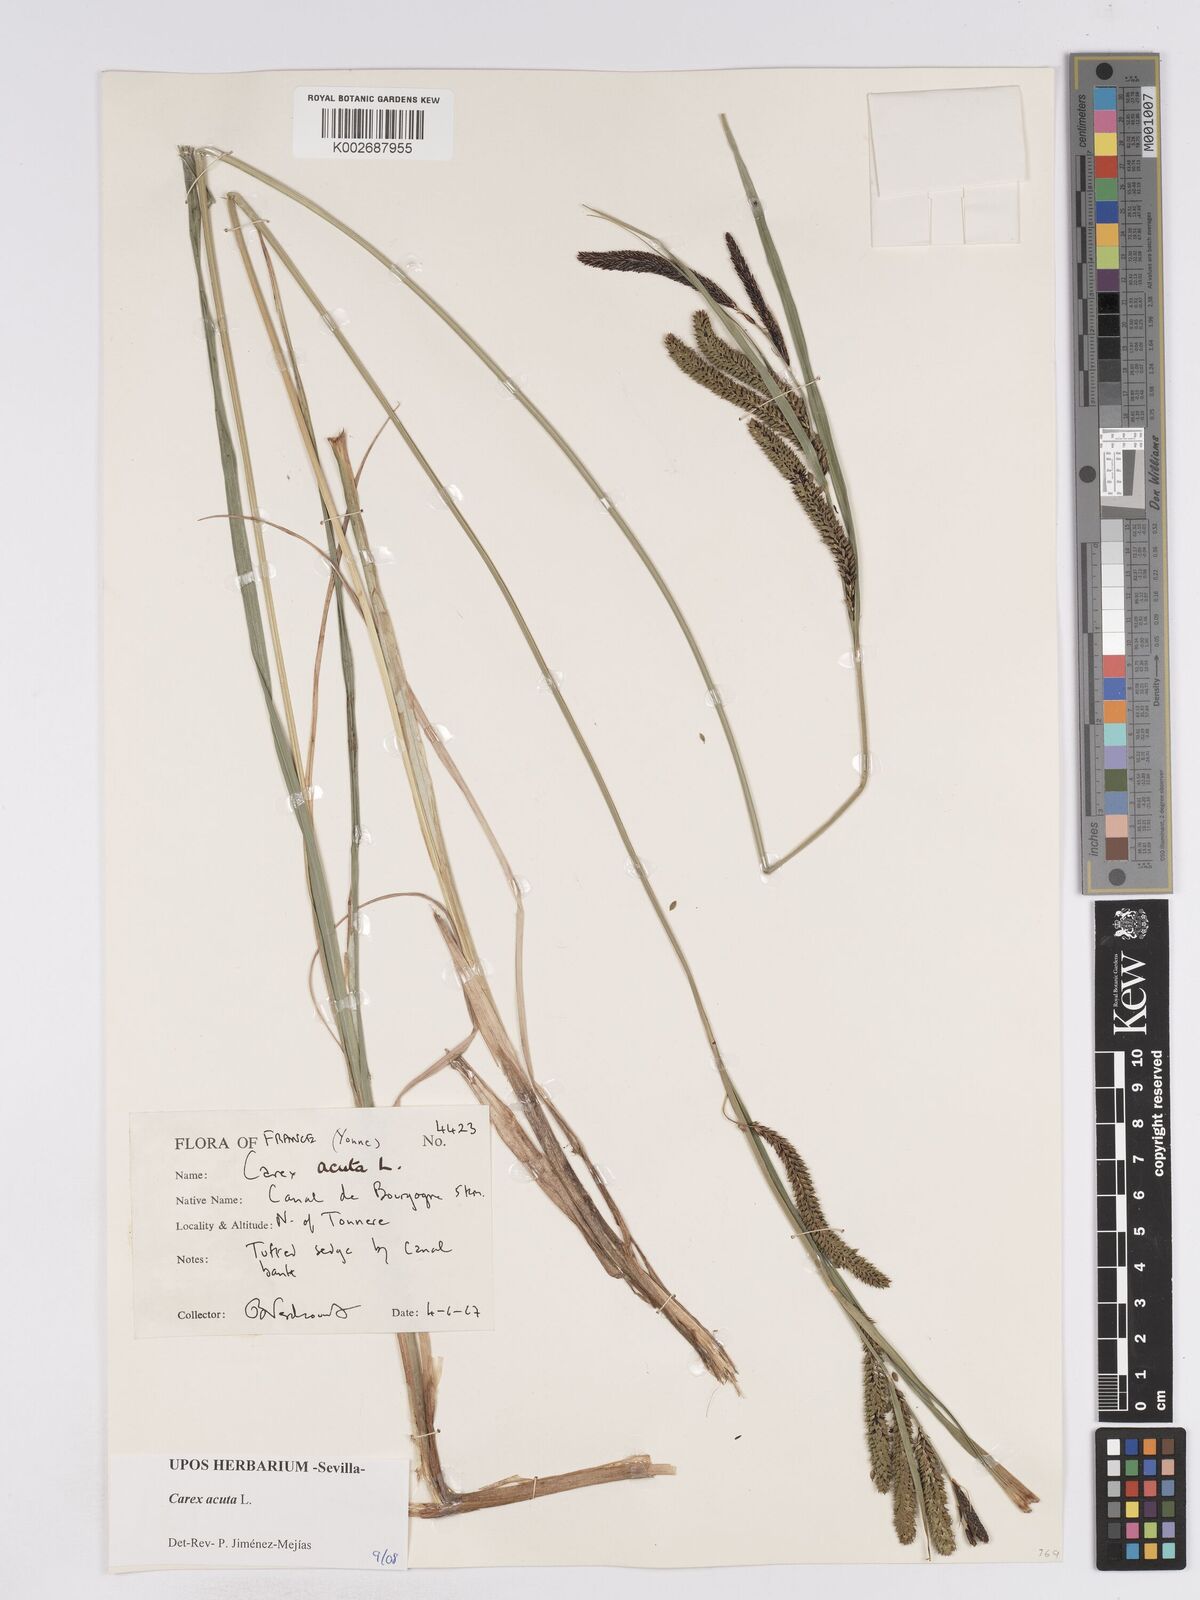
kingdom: Plantae
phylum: Tracheophyta
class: Liliopsida
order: Poales
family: Cyperaceae
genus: Carex
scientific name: Carex acuta
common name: Slender tufted-sedge
